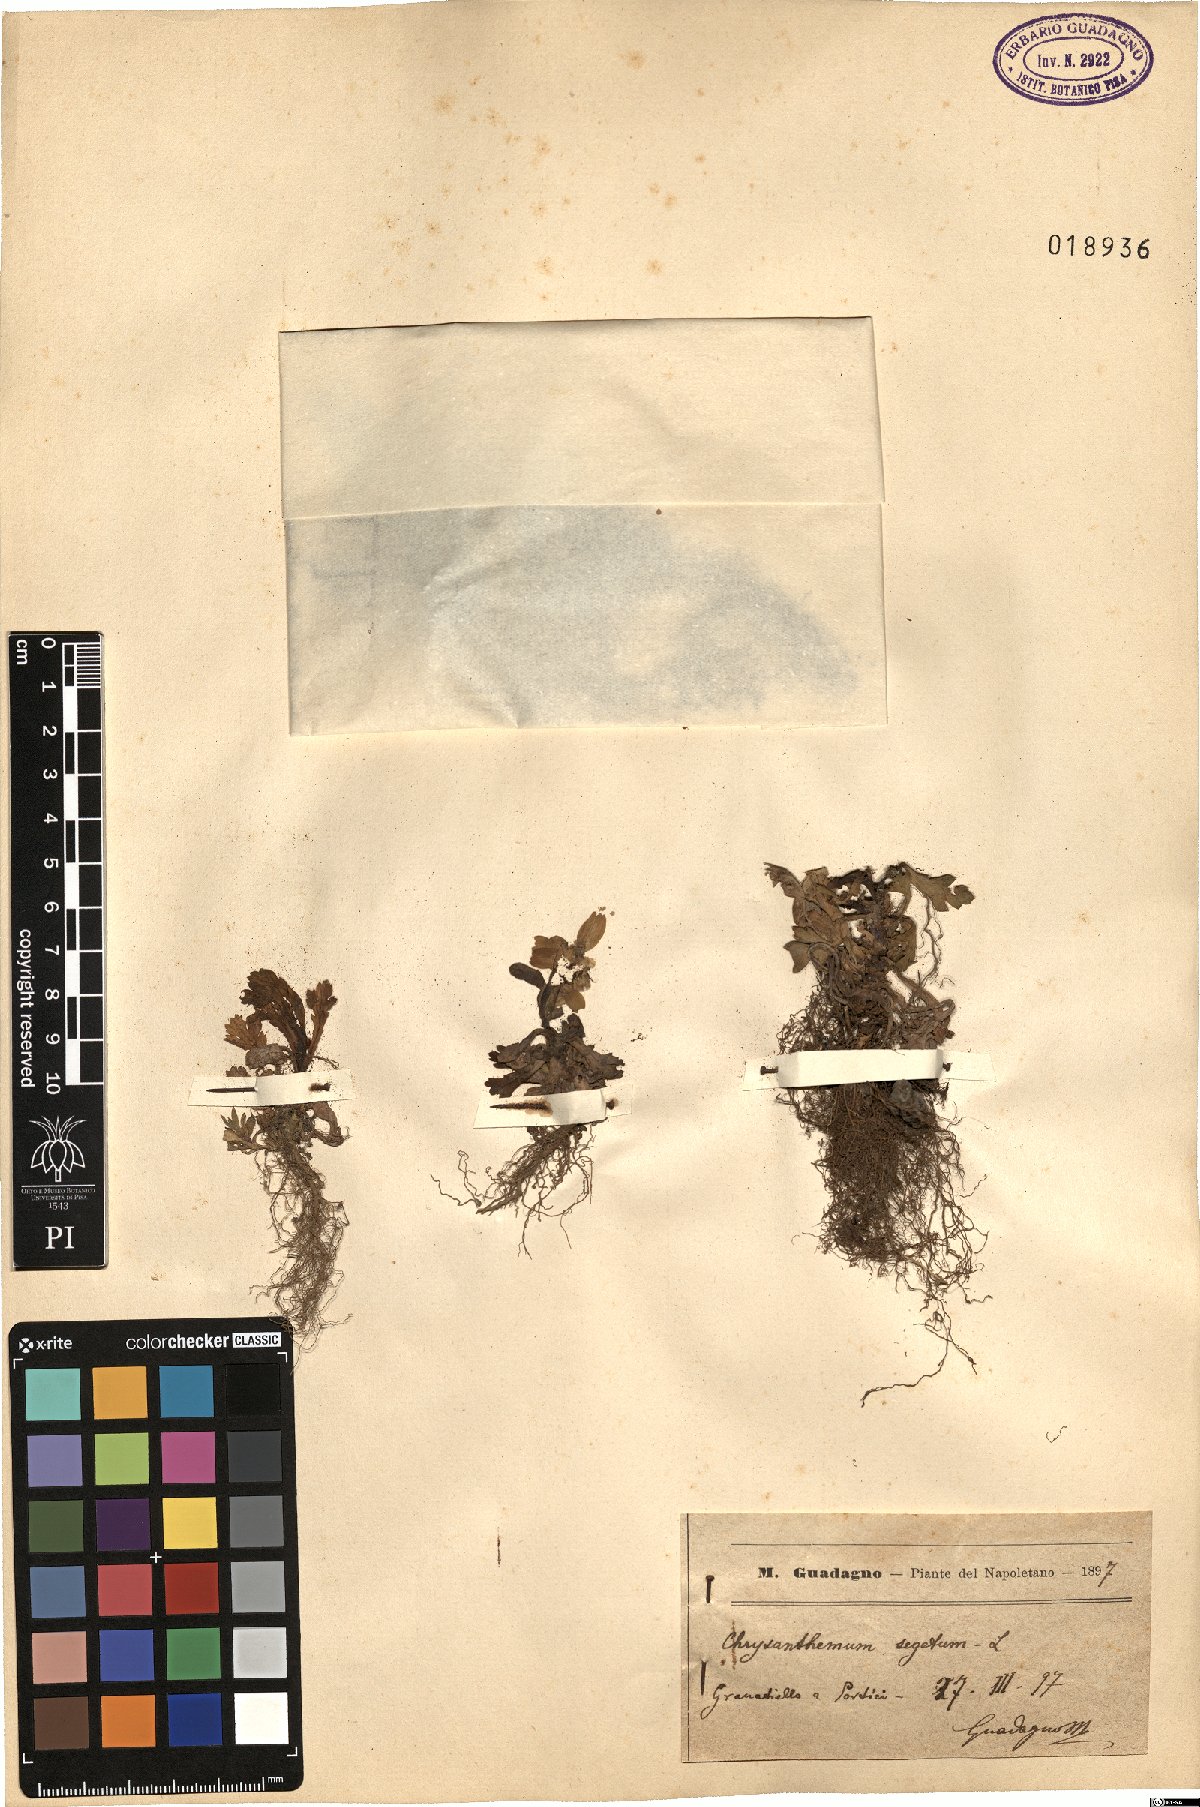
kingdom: Plantae
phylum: Tracheophyta
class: Magnoliopsida
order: Asterales
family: Asteraceae
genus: Glebionis
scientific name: Glebionis segetum
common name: Corndaisy
